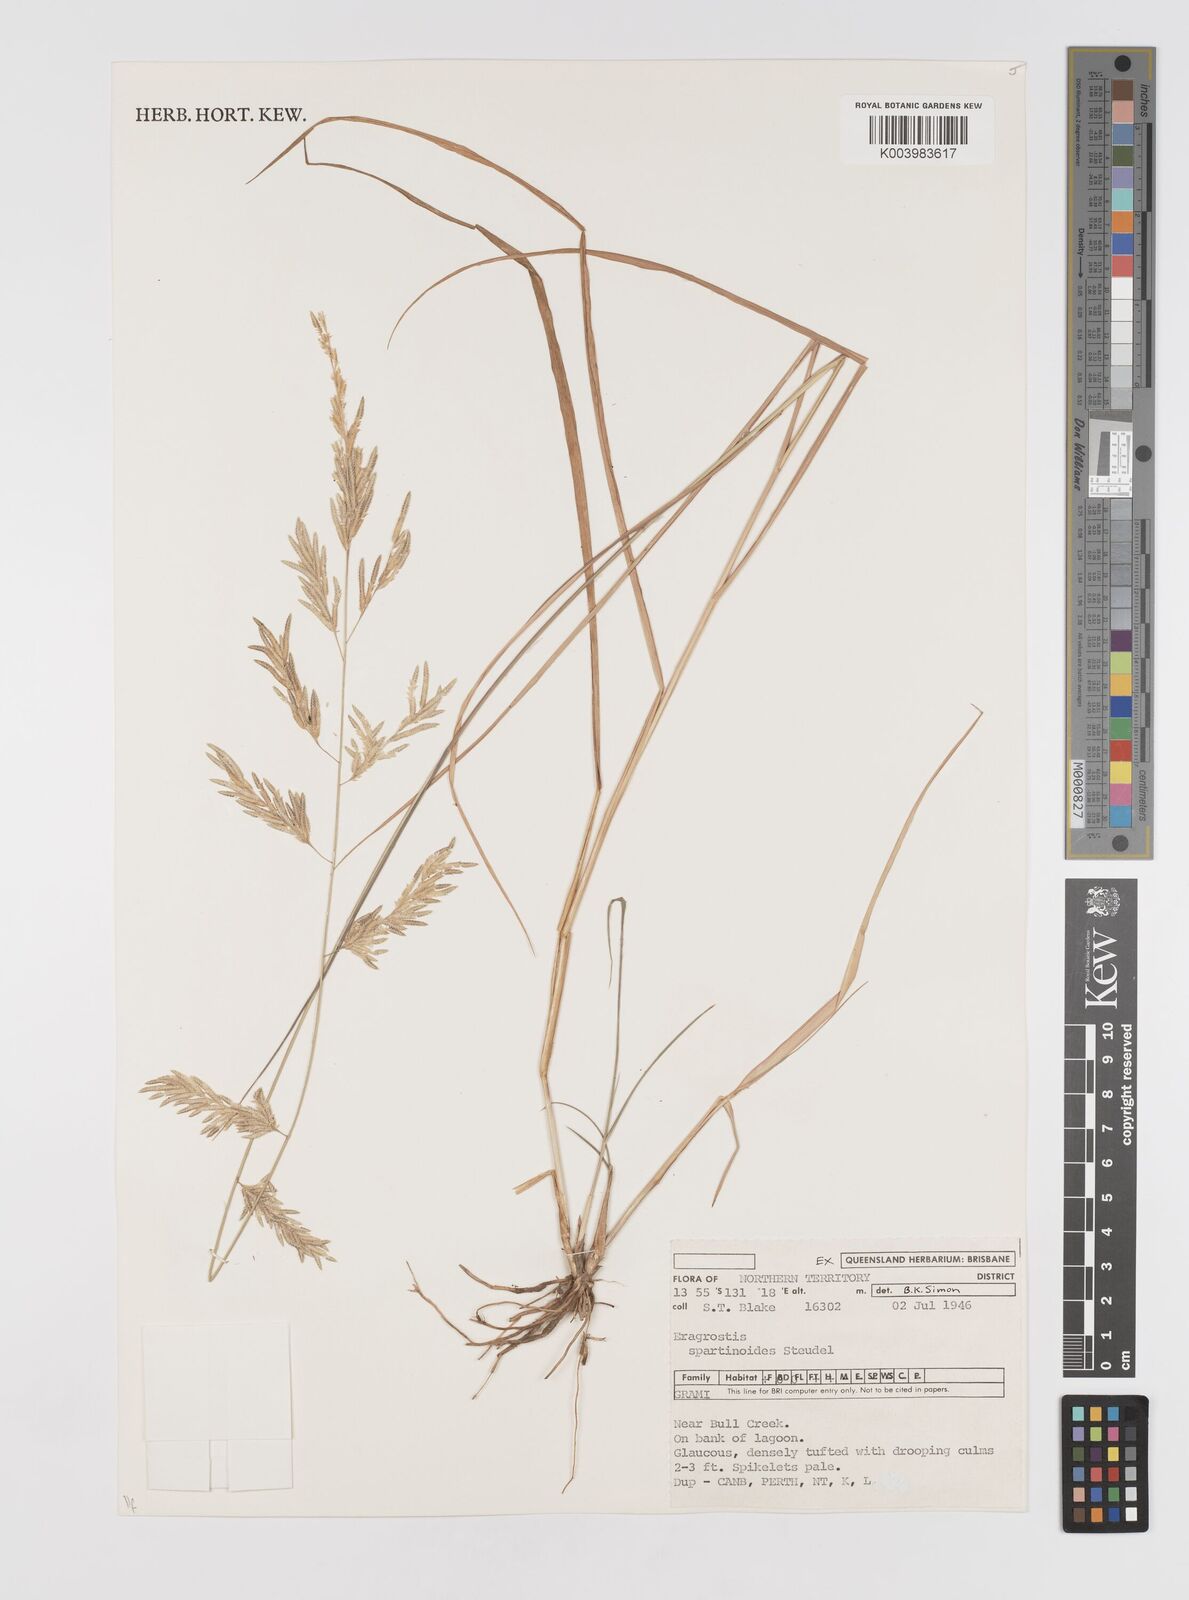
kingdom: Plantae
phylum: Tracheophyta
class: Liliopsida
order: Poales
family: Poaceae
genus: Eragrostis
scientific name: Eragrostis speciosa
